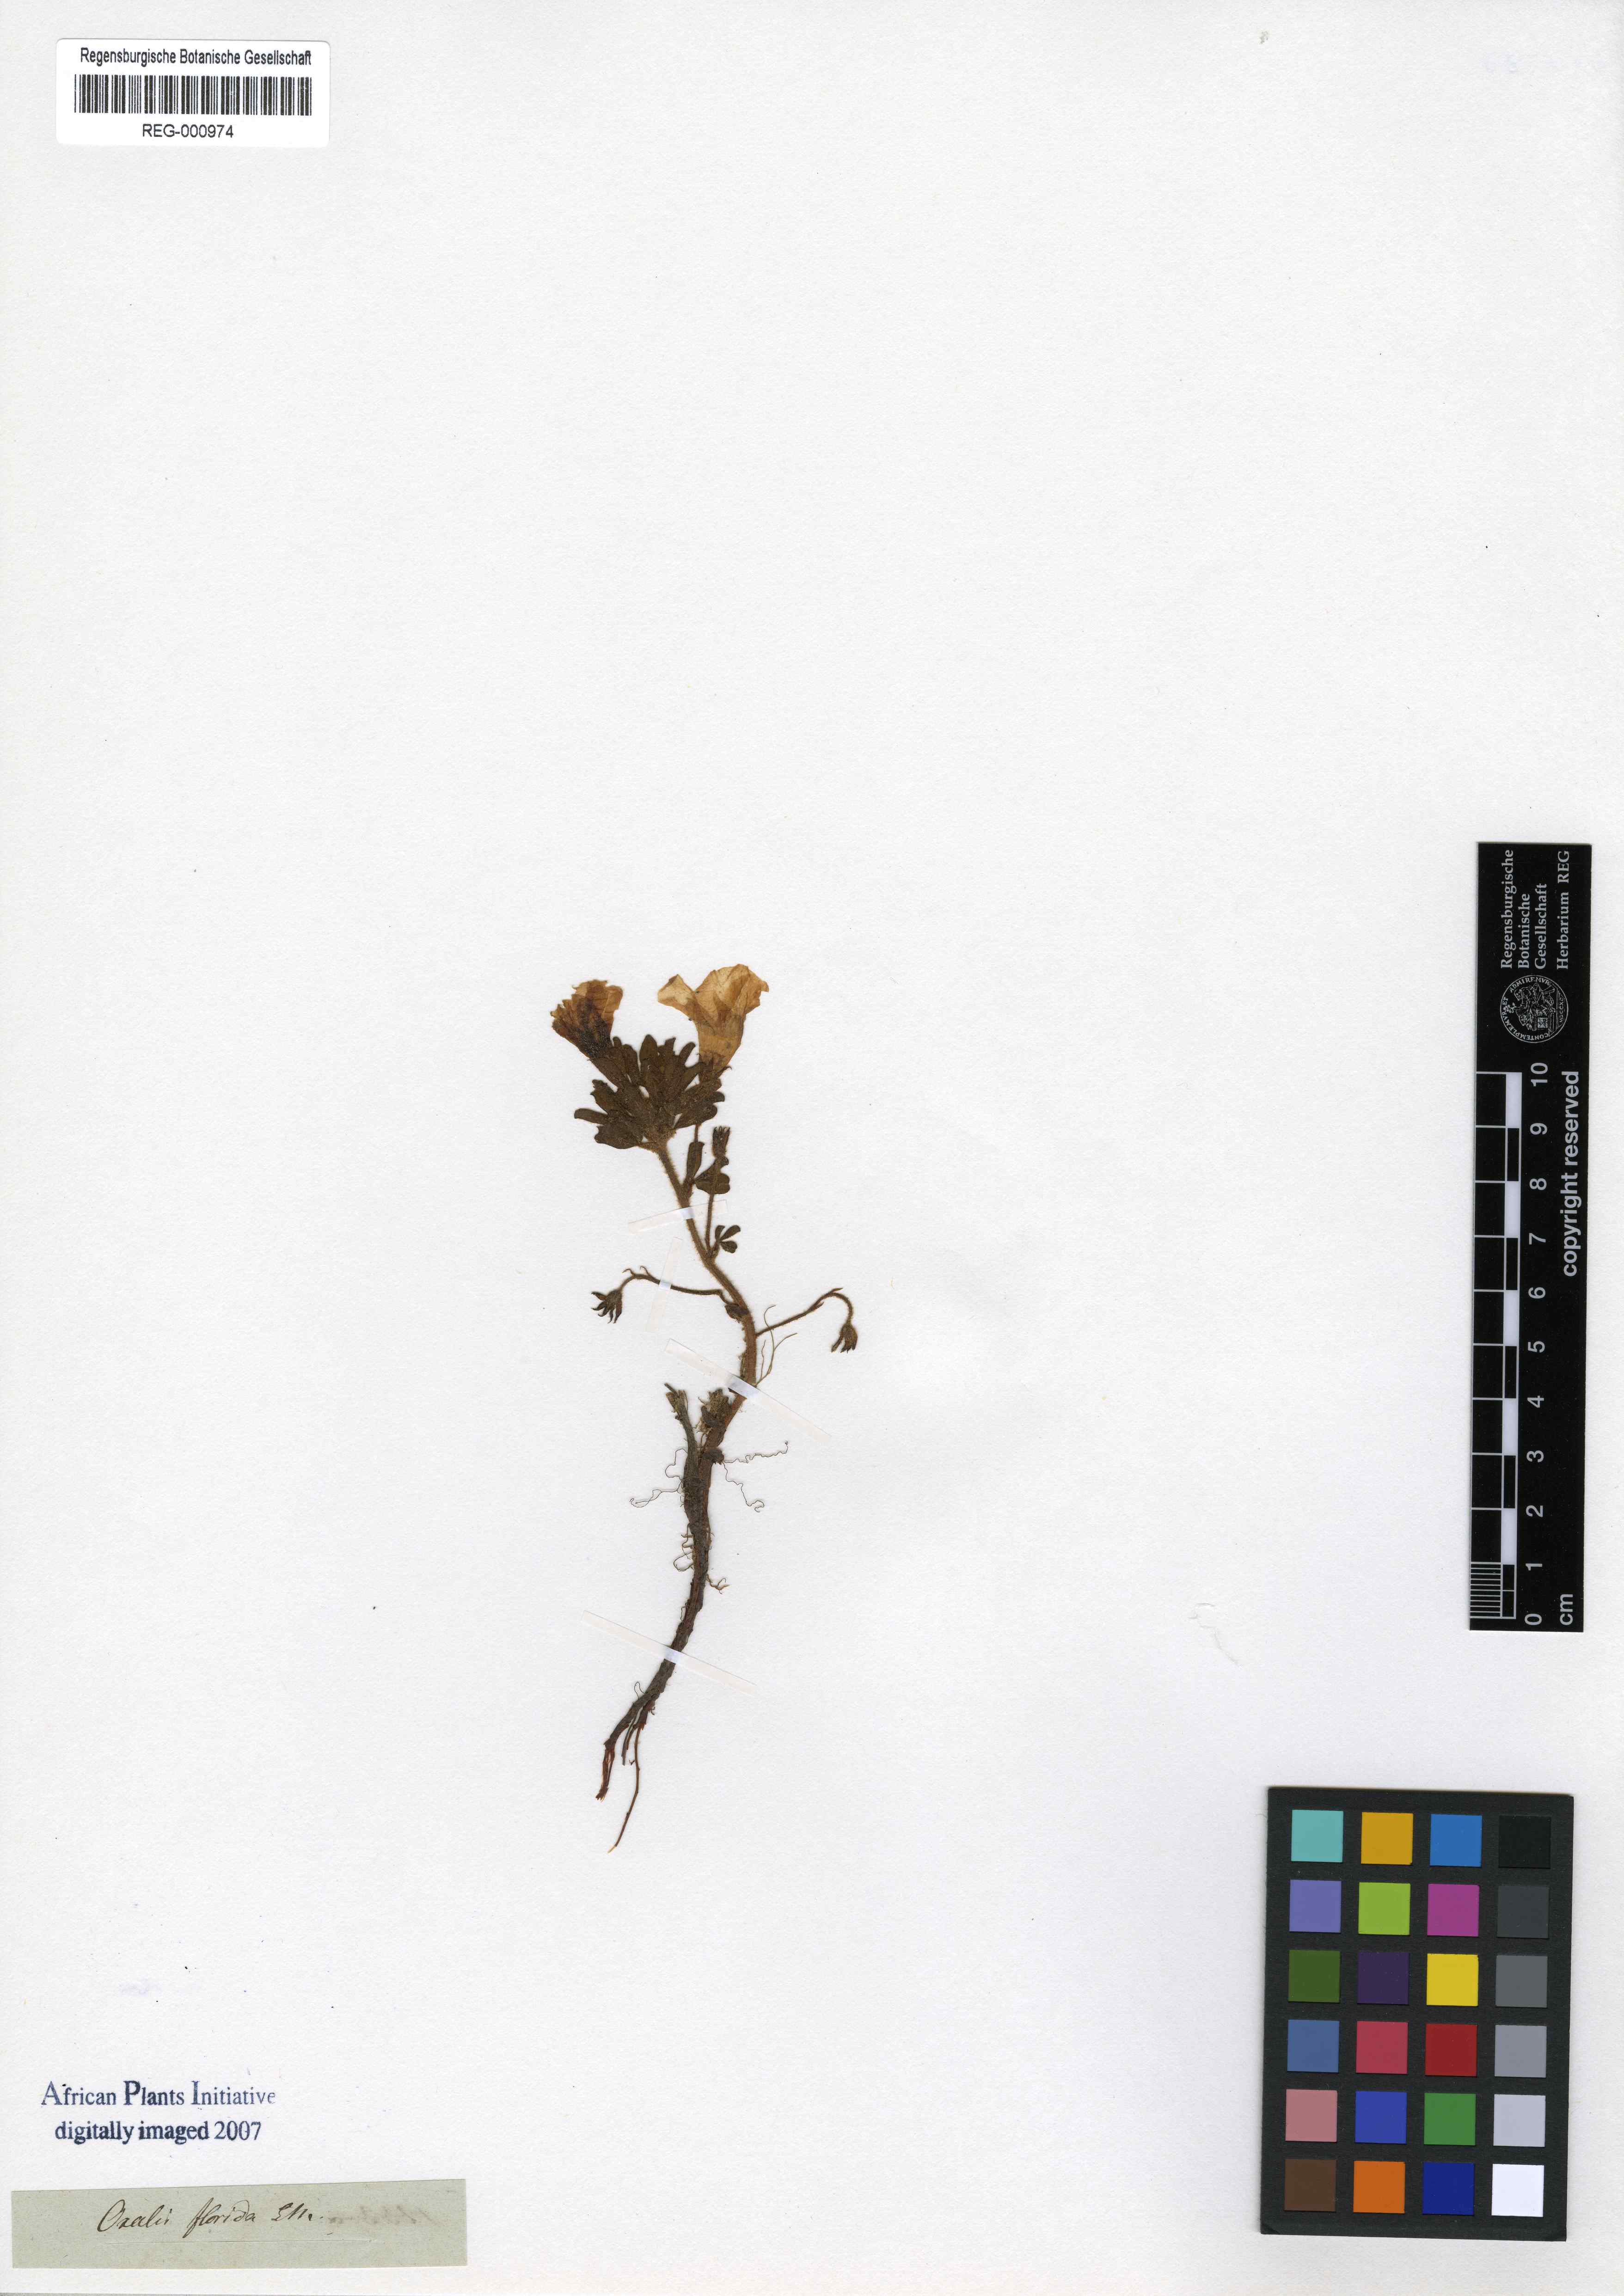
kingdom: Plantae
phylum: Tracheophyta
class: Magnoliopsida
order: Oxalidales
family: Oxalidaceae
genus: Oxalis
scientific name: Oxalis adspersa
